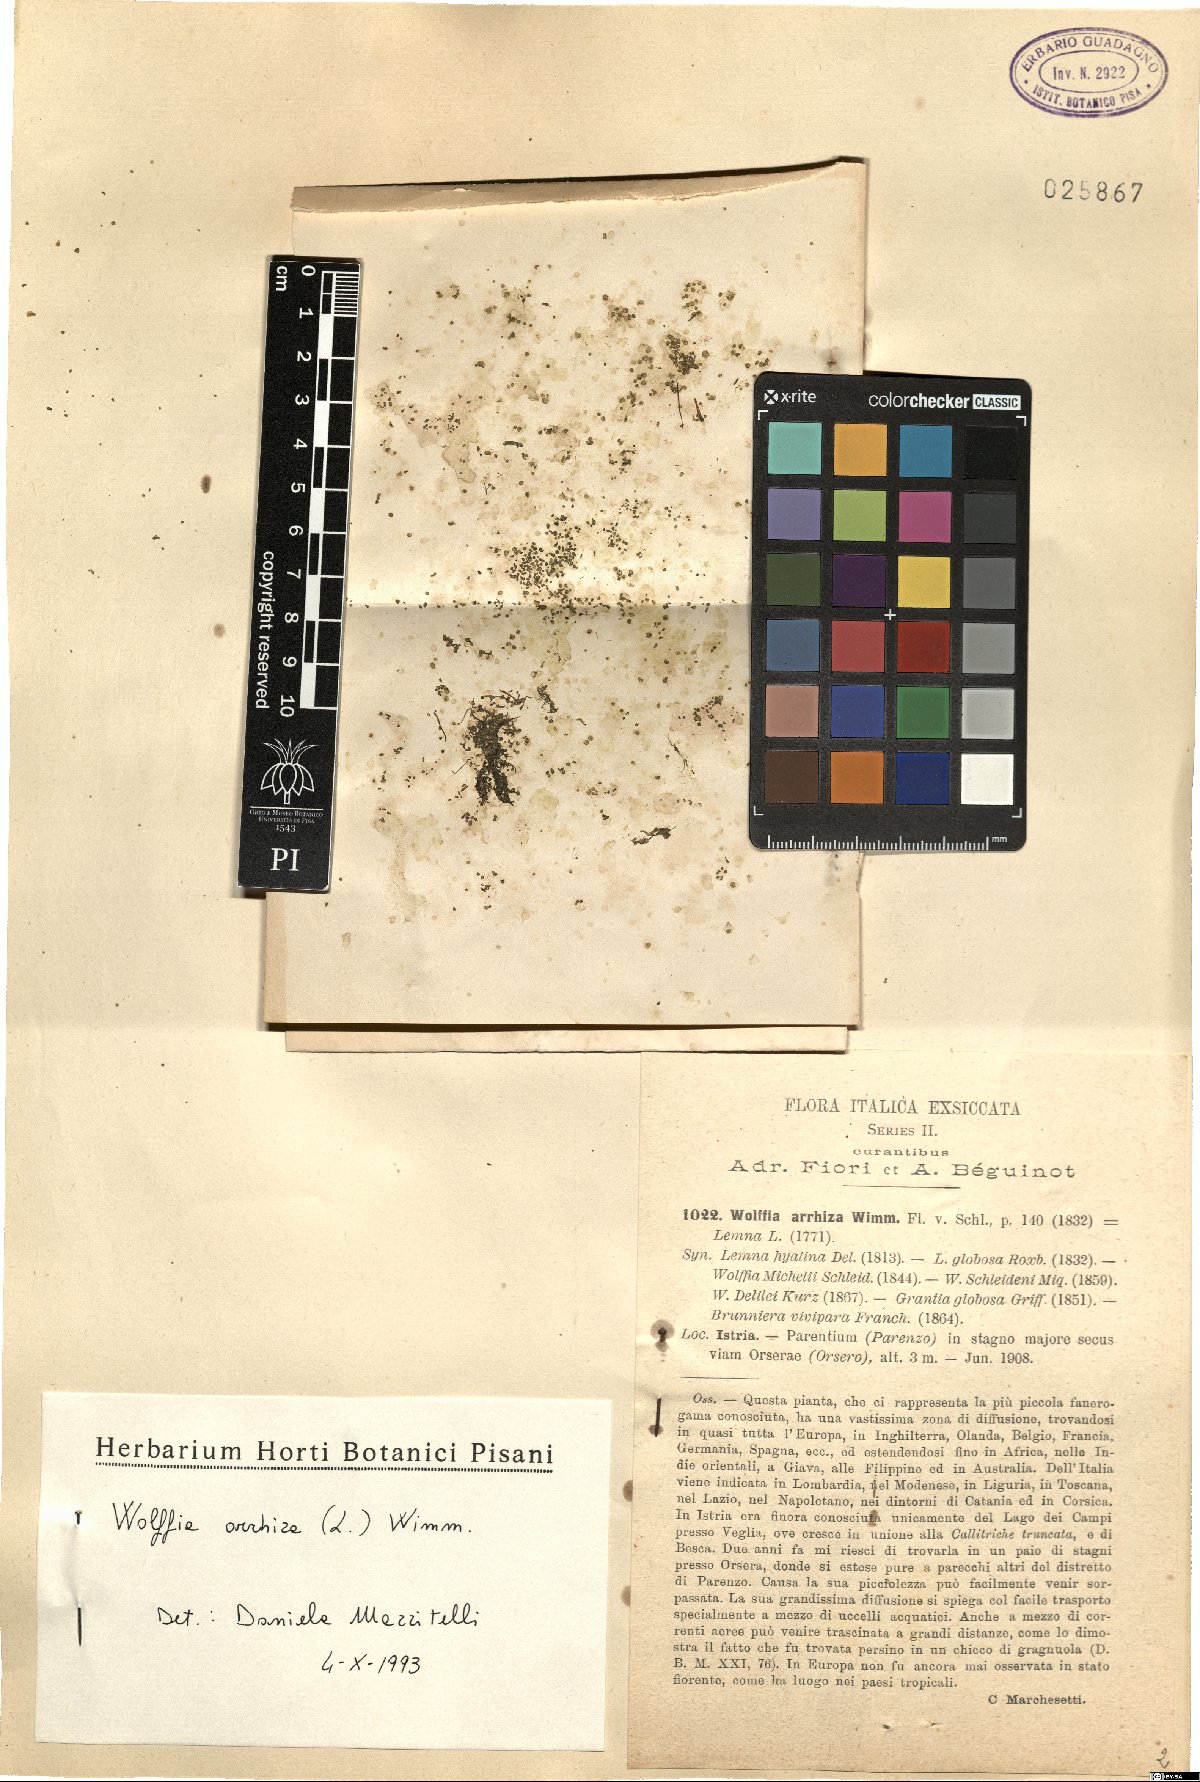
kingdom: Plantae
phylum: Tracheophyta
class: Liliopsida
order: Alismatales
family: Araceae
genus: Wolffia
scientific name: Wolffia arrhiza
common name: Rootless duckweed
